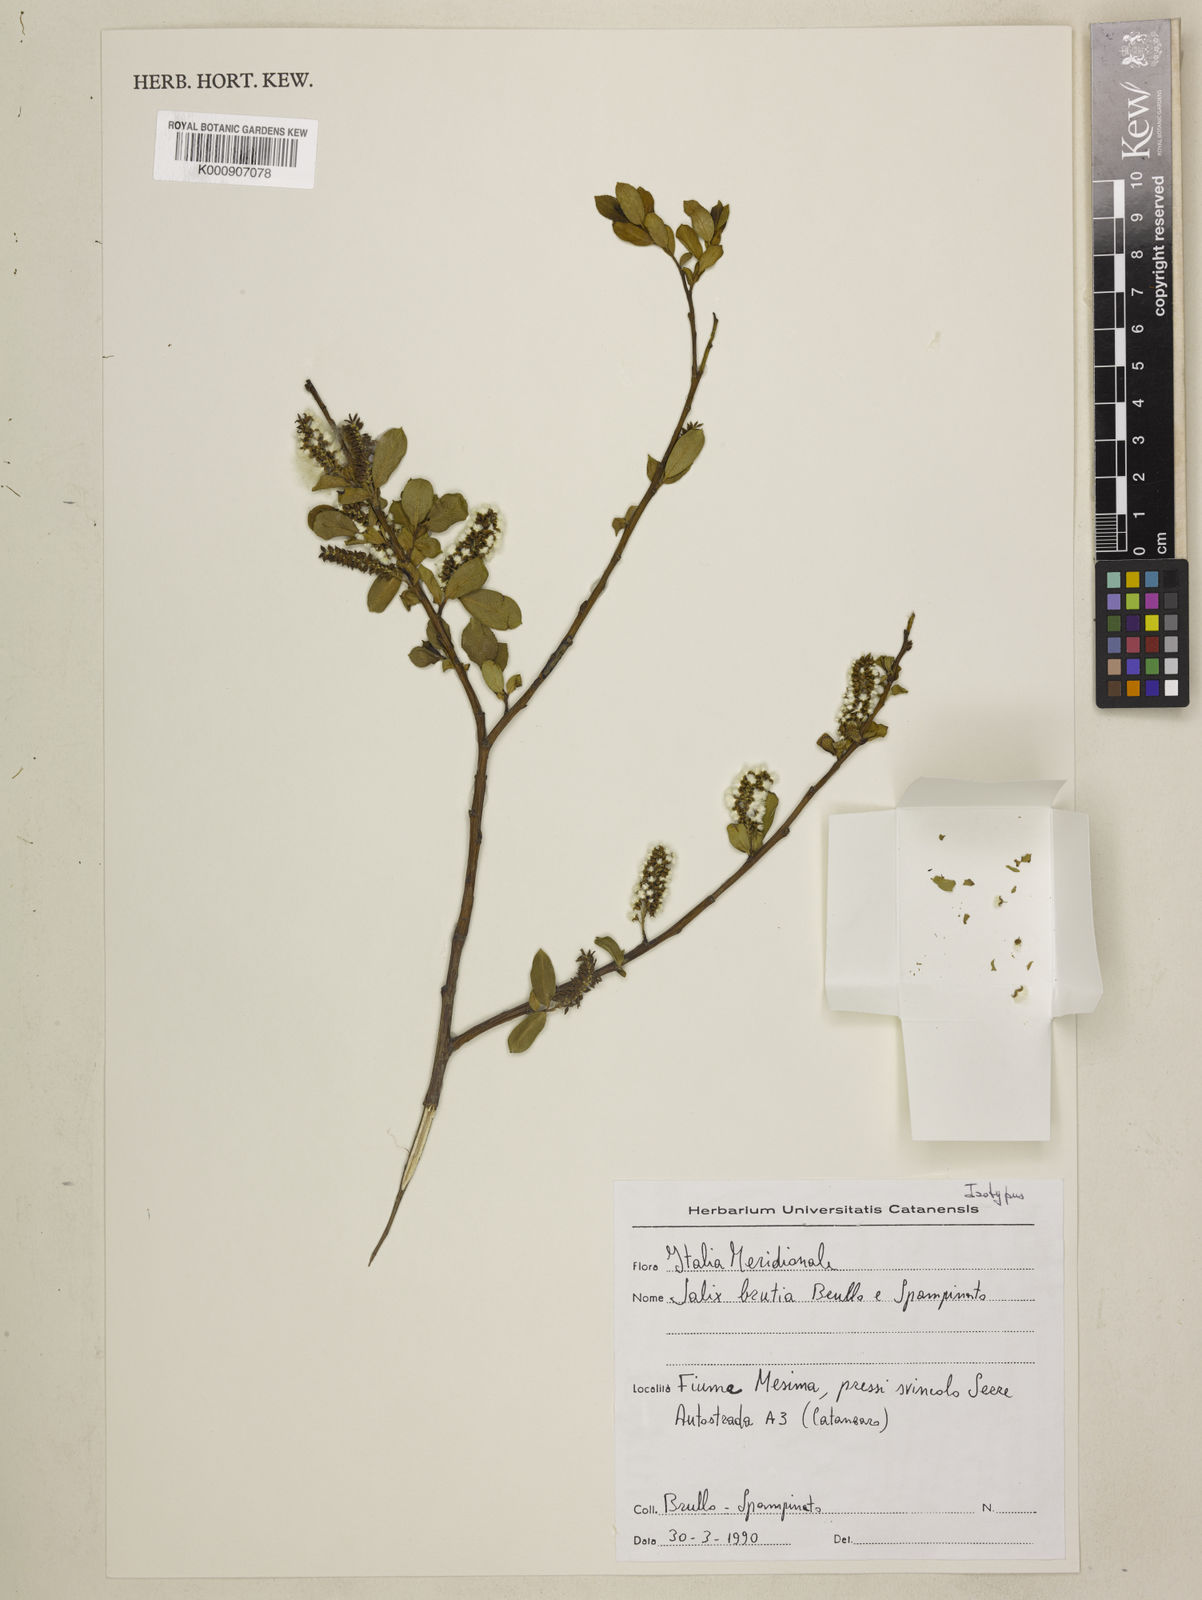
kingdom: Plantae
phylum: Tracheophyta
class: Magnoliopsida
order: Malpighiales
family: Salicaceae
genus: Salix
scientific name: Salix
